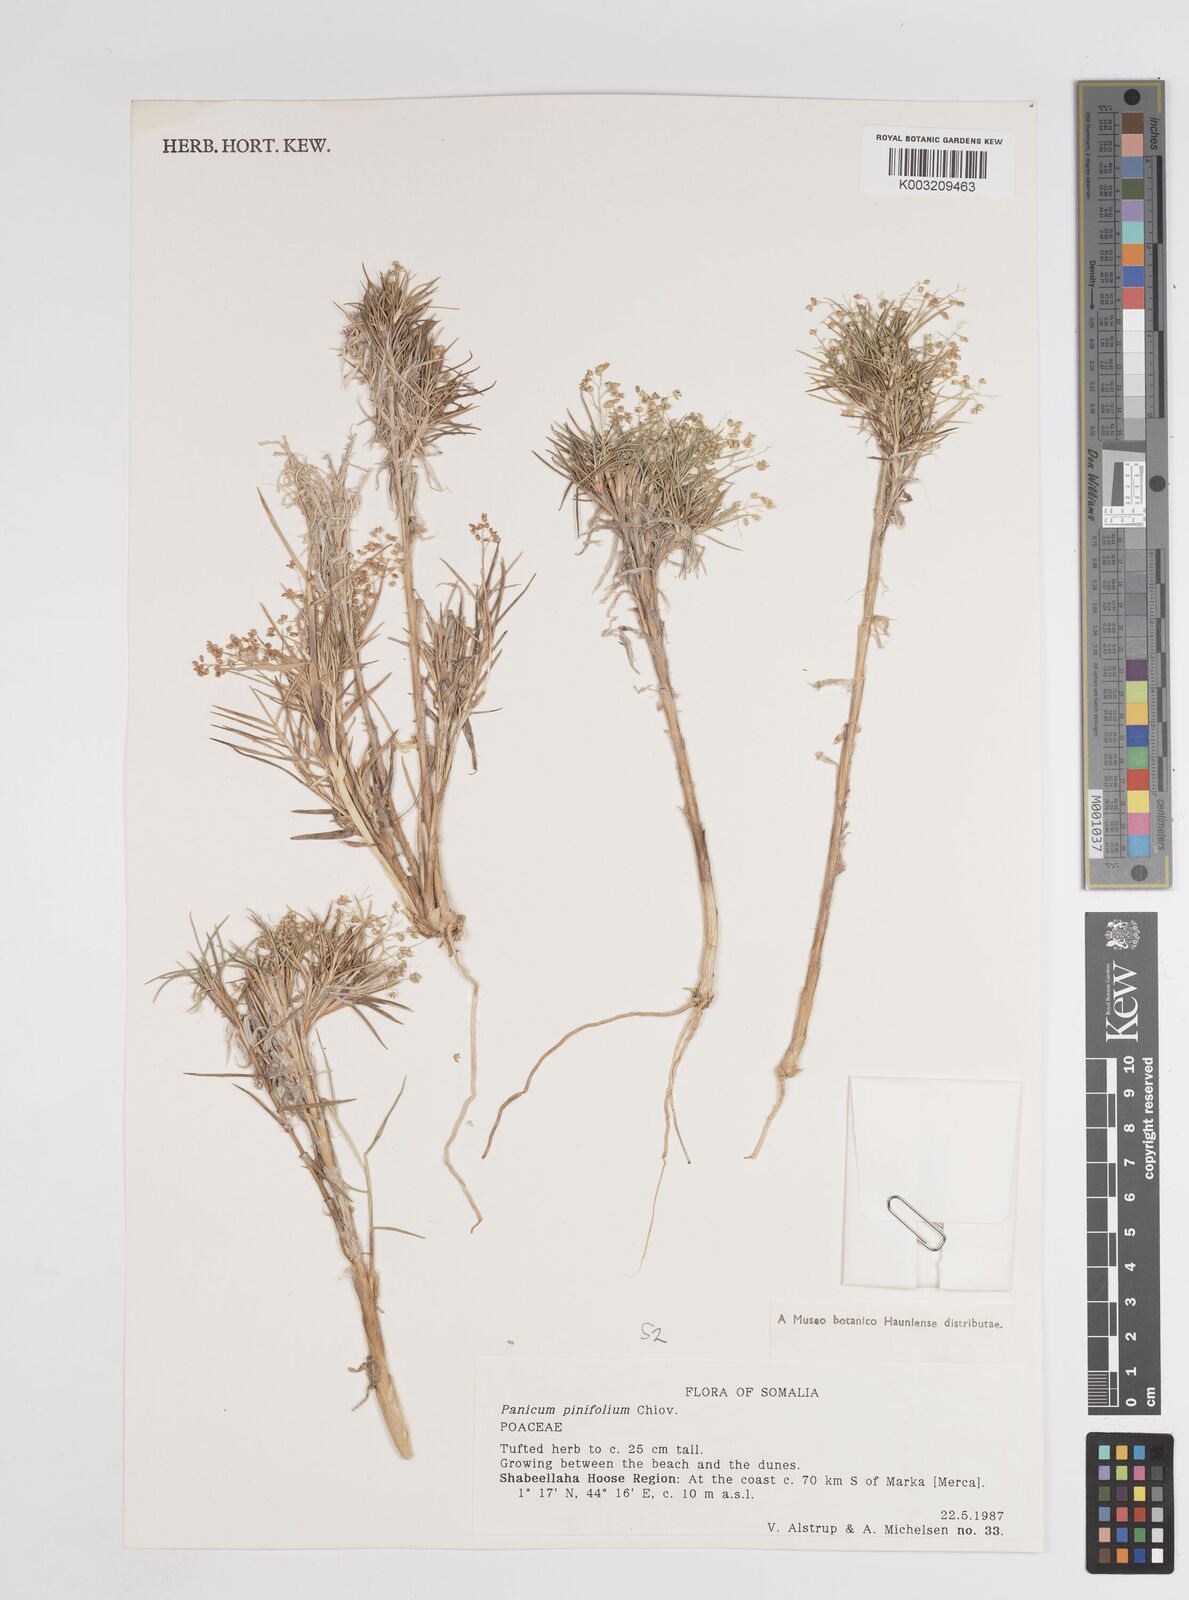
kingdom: Plantae
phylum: Tracheophyta
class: Liliopsida
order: Poales
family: Poaceae
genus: Panicum
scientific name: Panicum pinifolium
